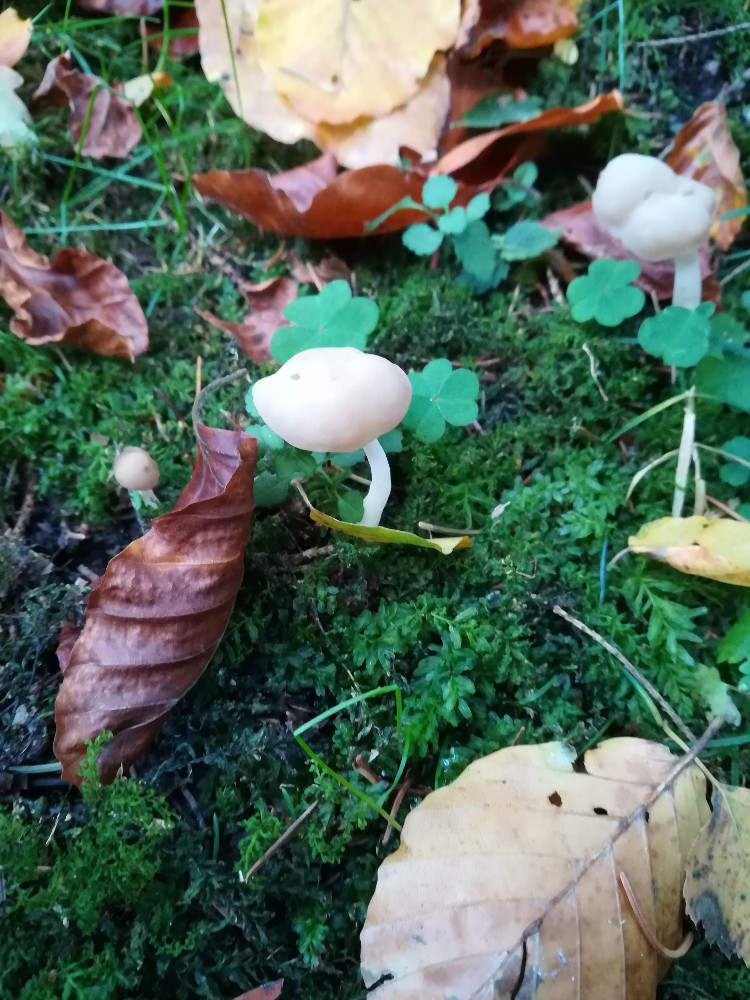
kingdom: Fungi
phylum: Ascomycota
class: Pezizomycetes
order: Pezizales
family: Helvellaceae
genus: Helvella
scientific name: Helvella elastica
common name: elastik-foldhat
